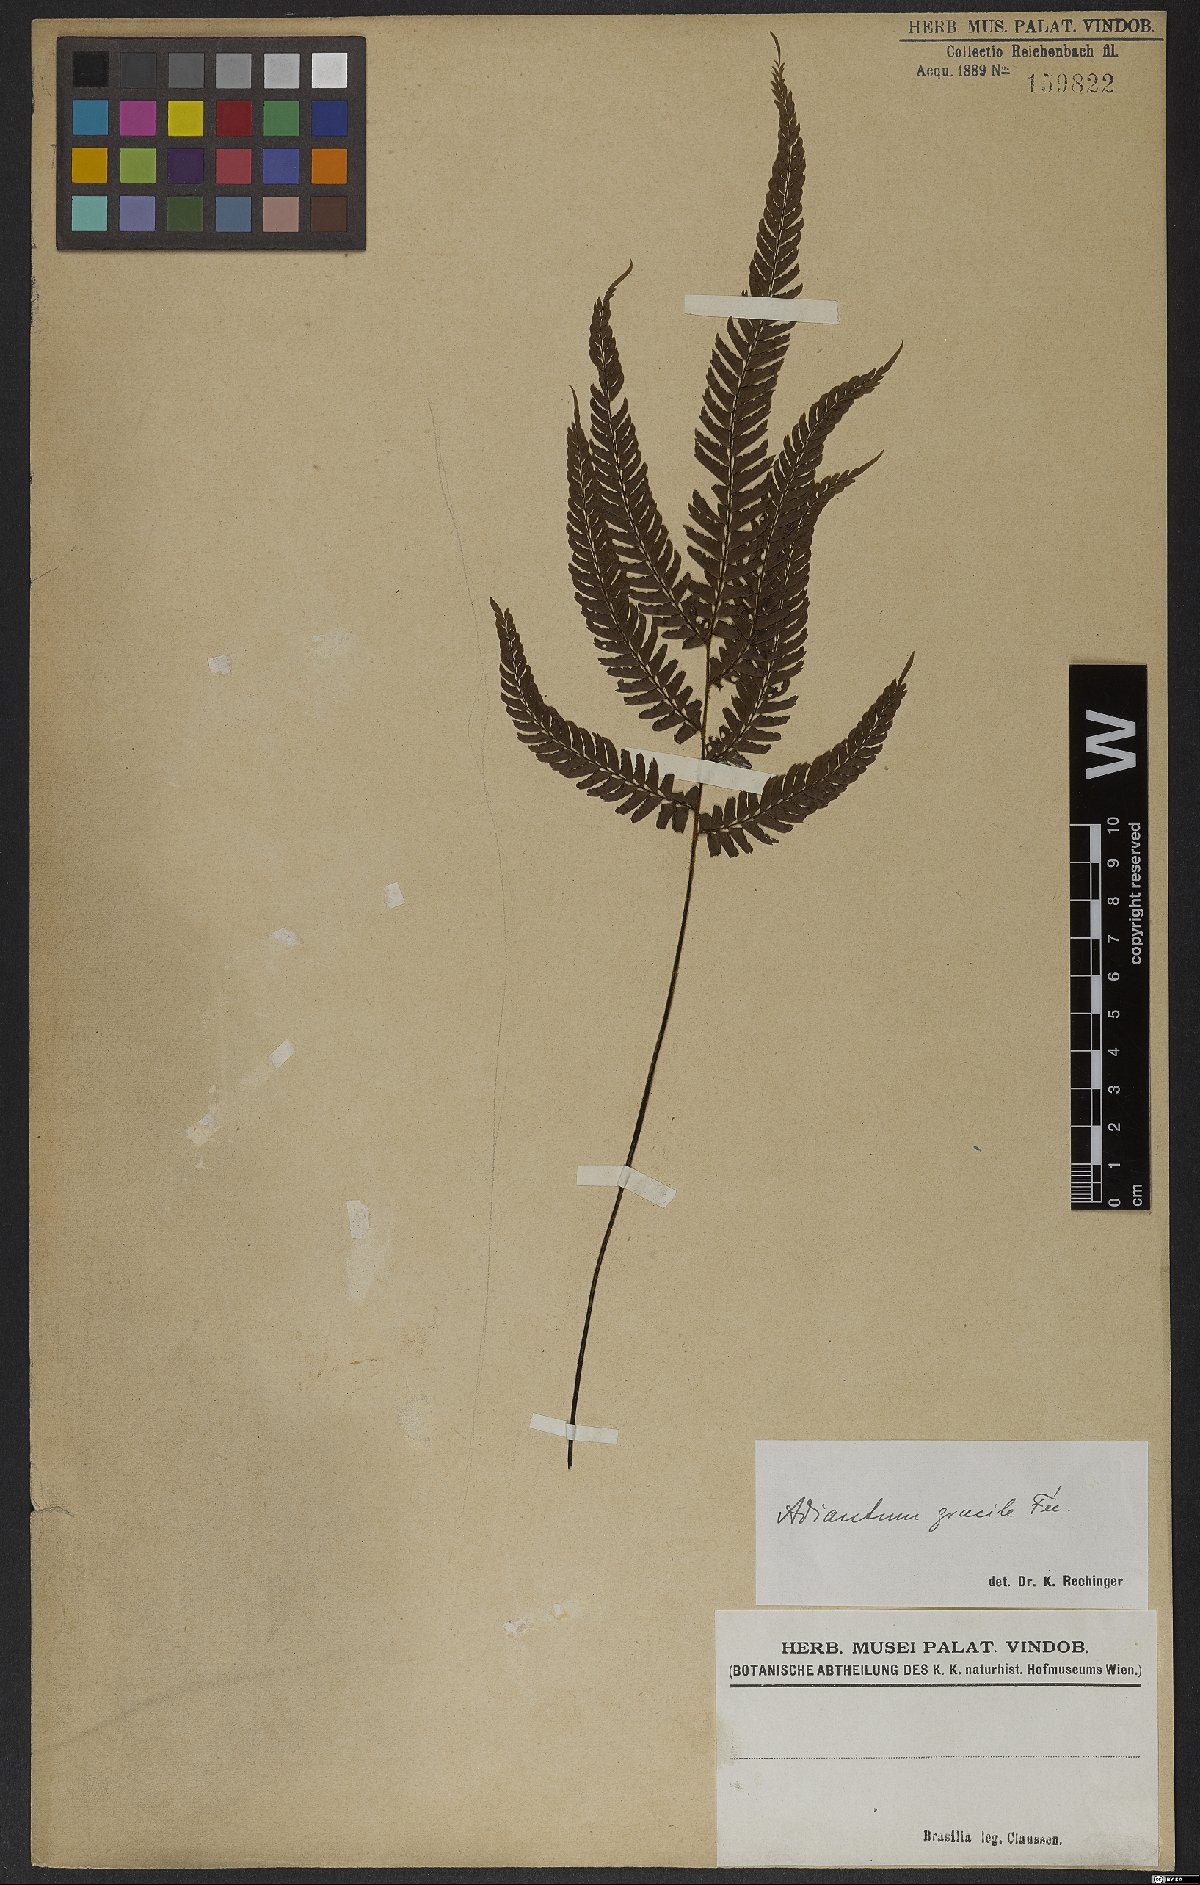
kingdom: Plantae
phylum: Tracheophyta
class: Polypodiopsida
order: Polypodiales
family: Pteridaceae
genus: Adiantum
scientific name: Adiantum gracile
